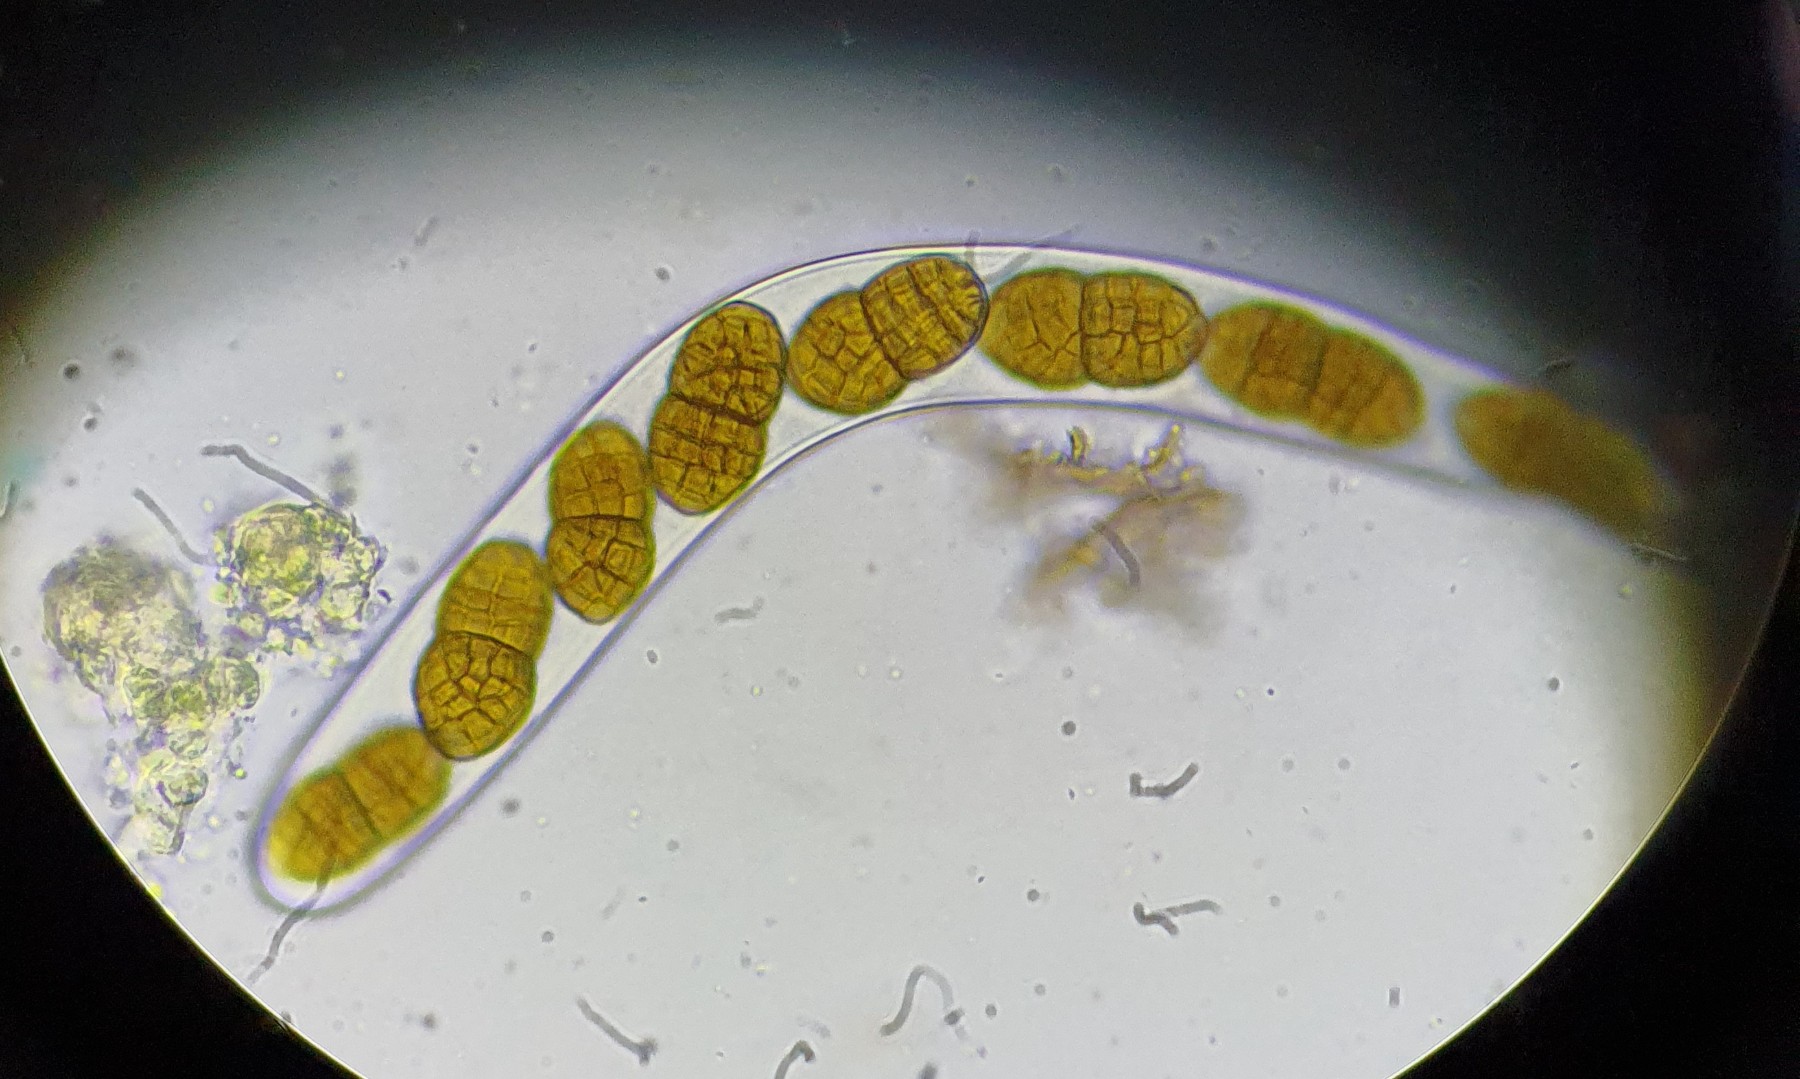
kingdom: Fungi
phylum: Ascomycota
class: Dothideomycetes
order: Pleosporales
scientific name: Pleosporales
